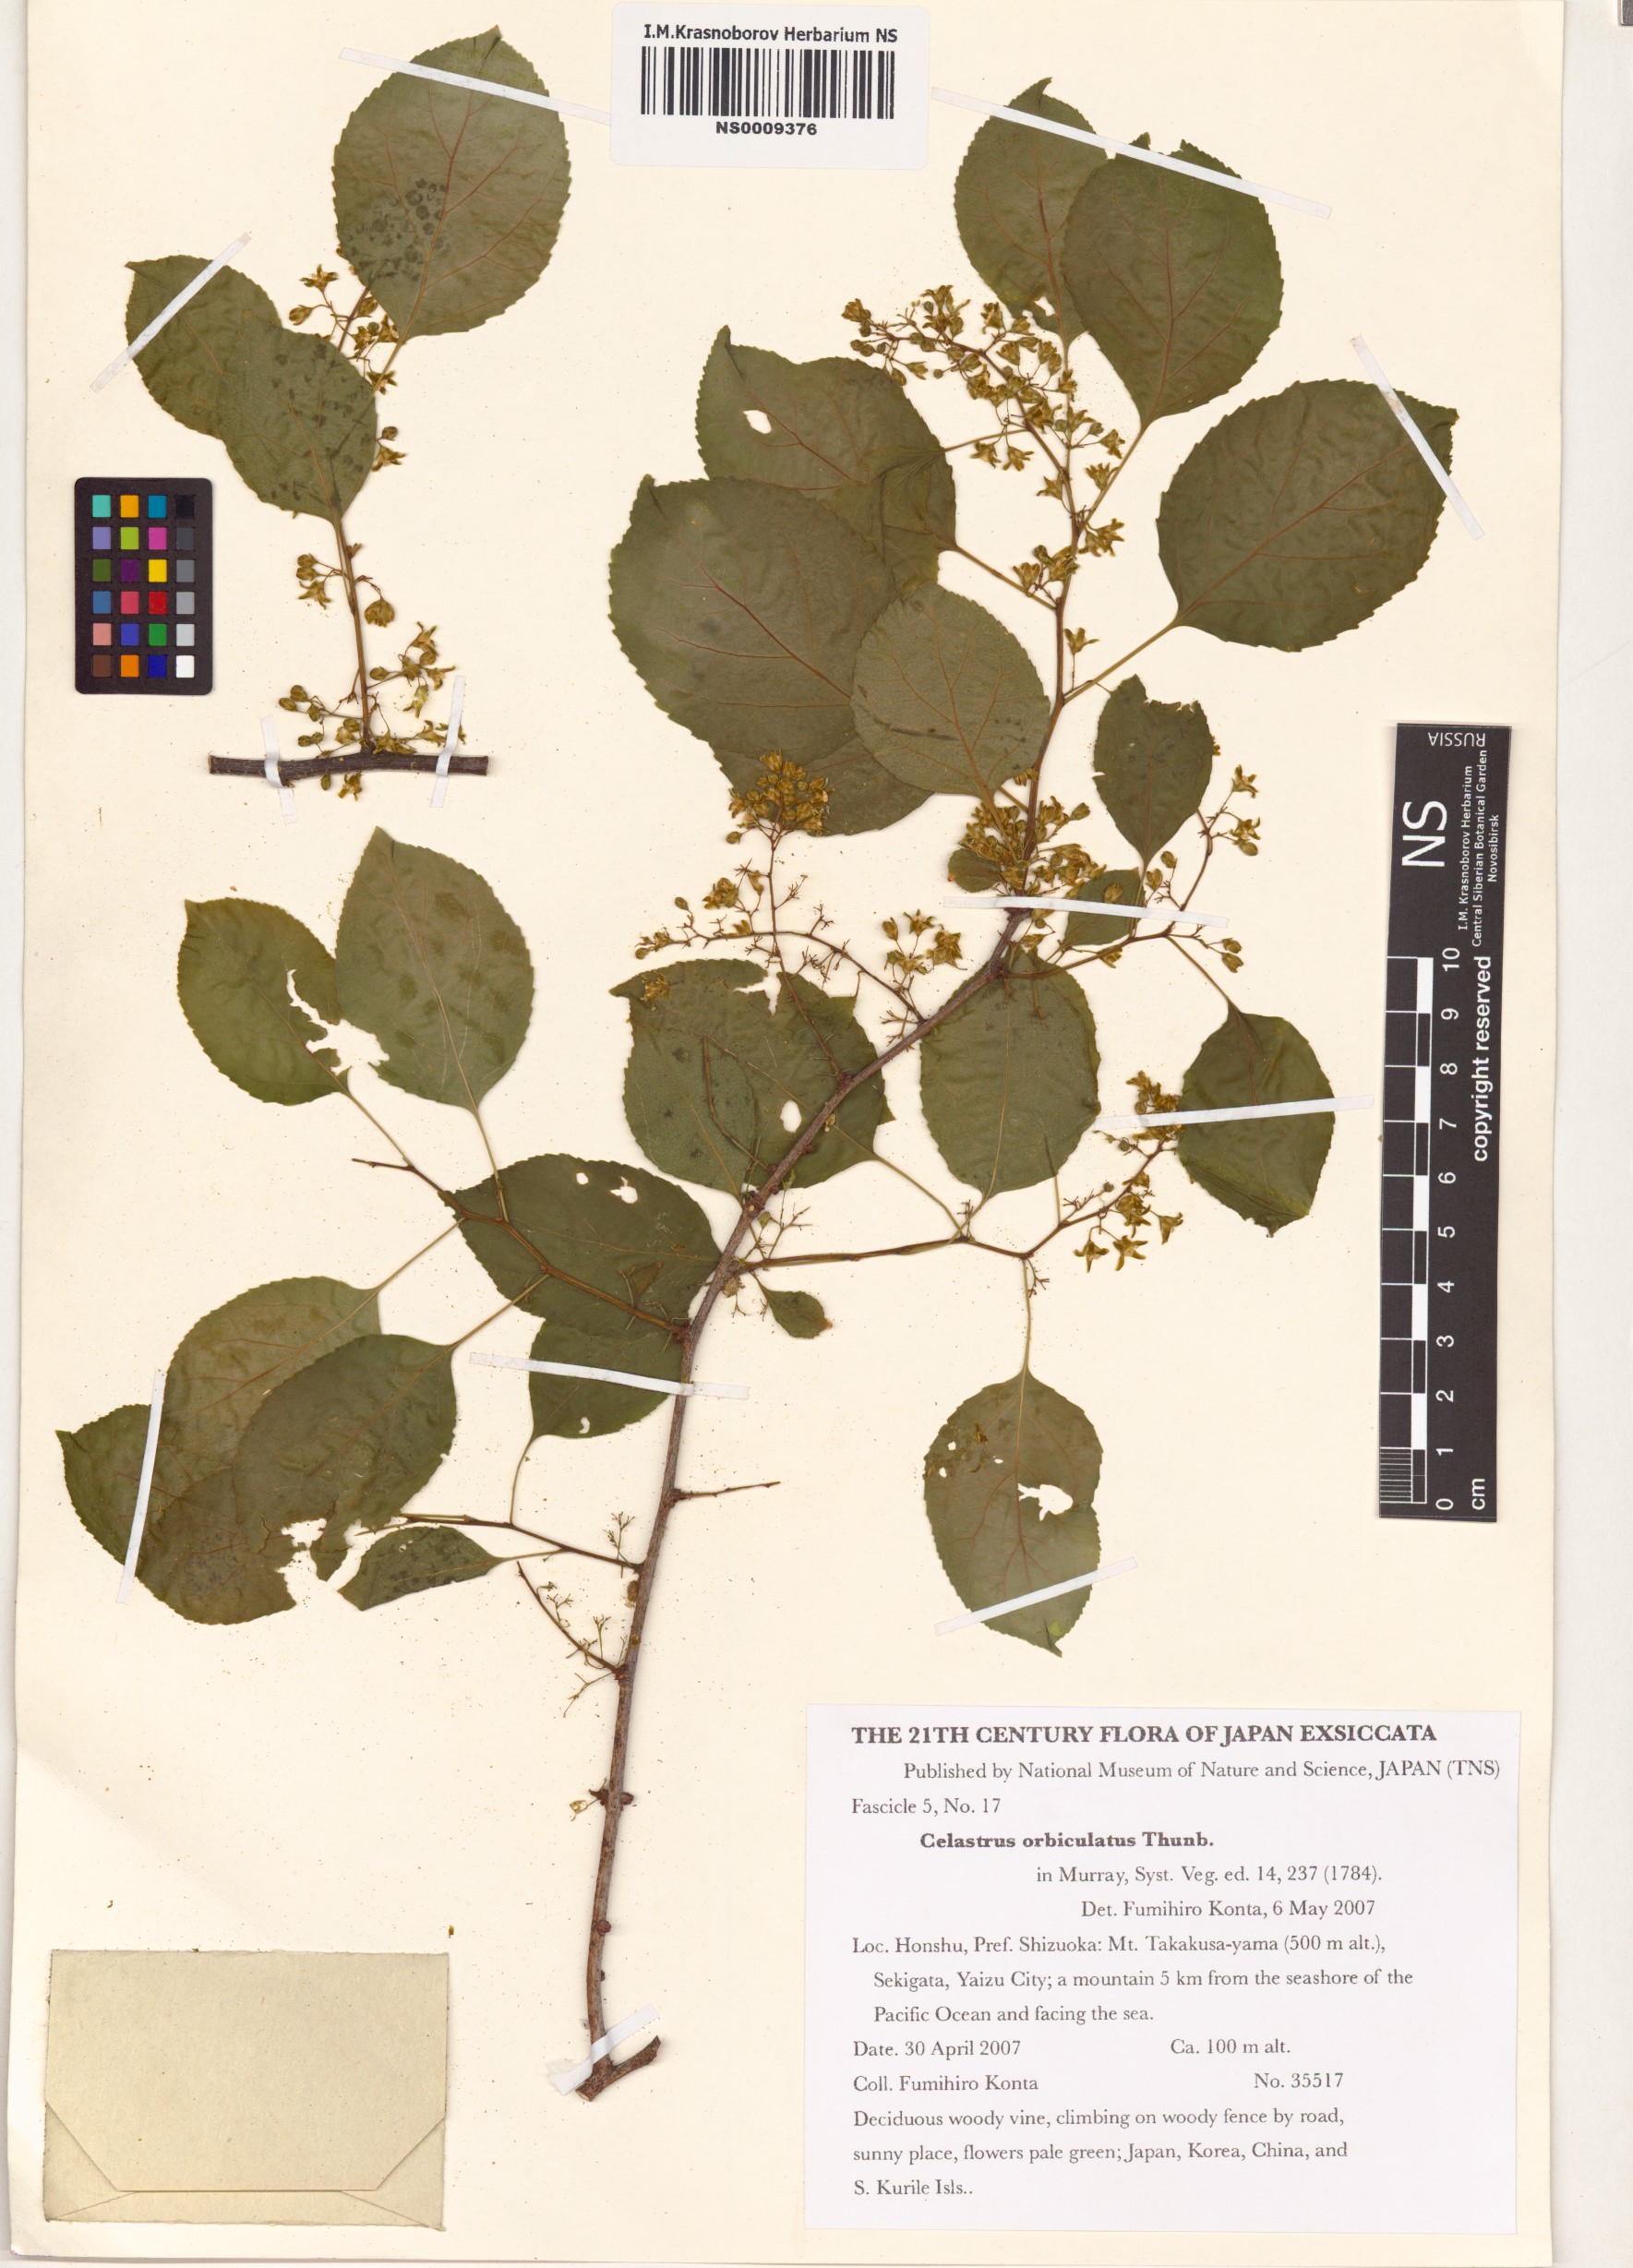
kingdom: Plantae
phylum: Tracheophyta
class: Magnoliopsida
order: Celastrales
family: Celastraceae
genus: Celastrus
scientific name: Celastrus orbiculatus
